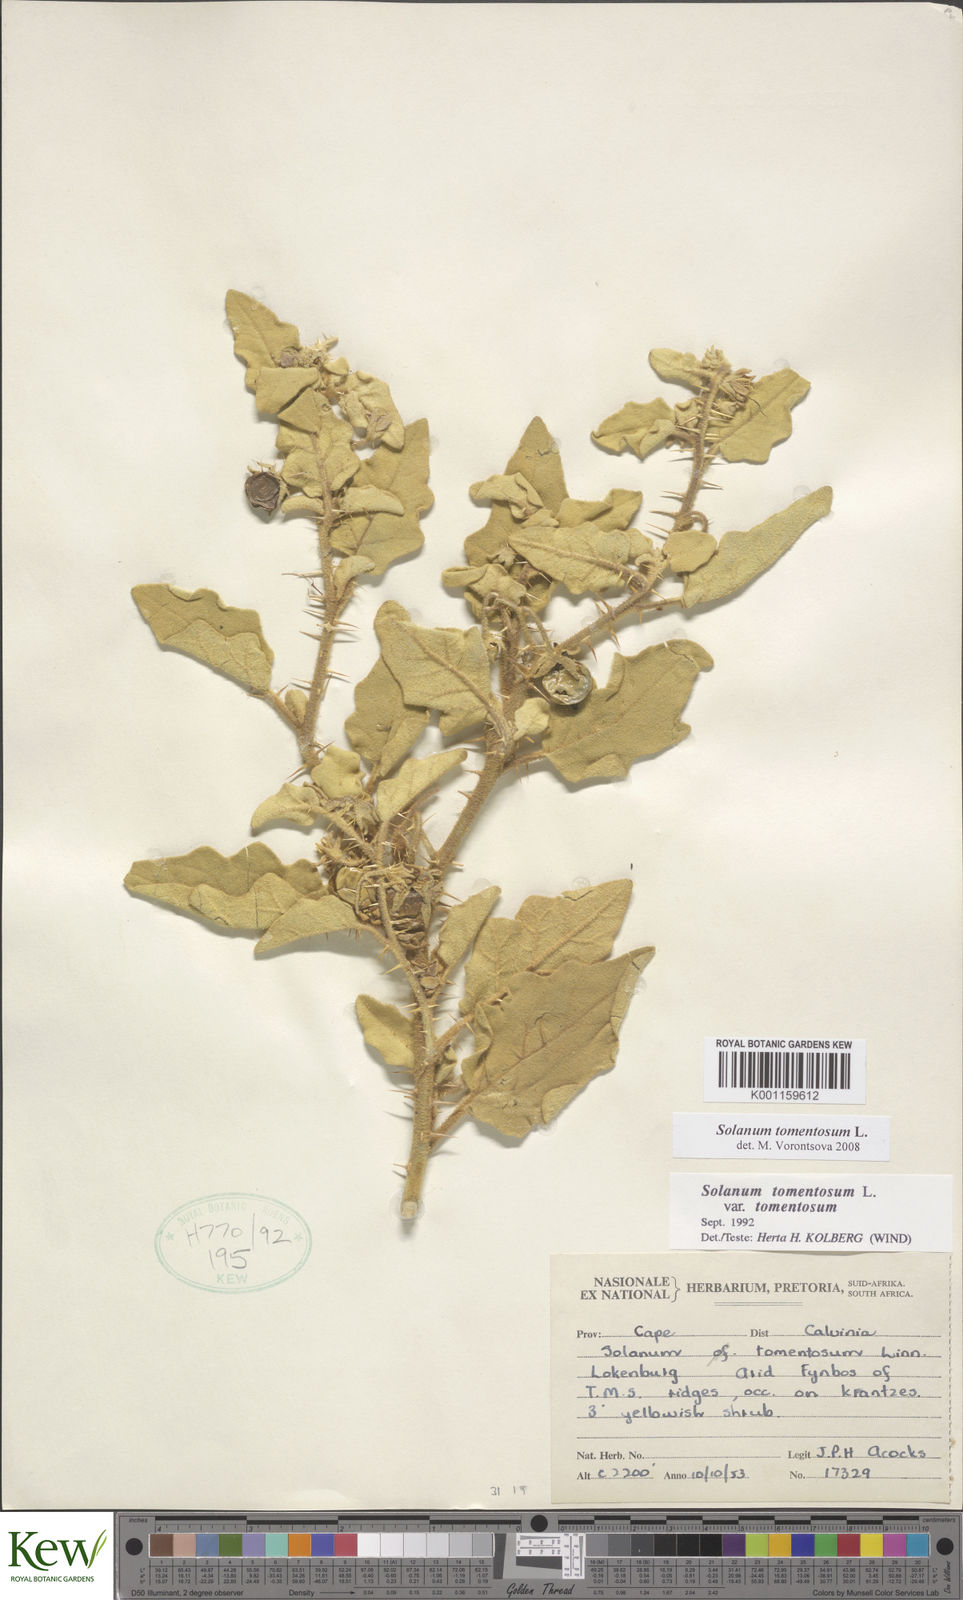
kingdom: Plantae
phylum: Tracheophyta
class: Magnoliopsida
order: Solanales
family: Solanaceae
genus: Solanum
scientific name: Solanum tomentosum
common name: Wild aubergine
